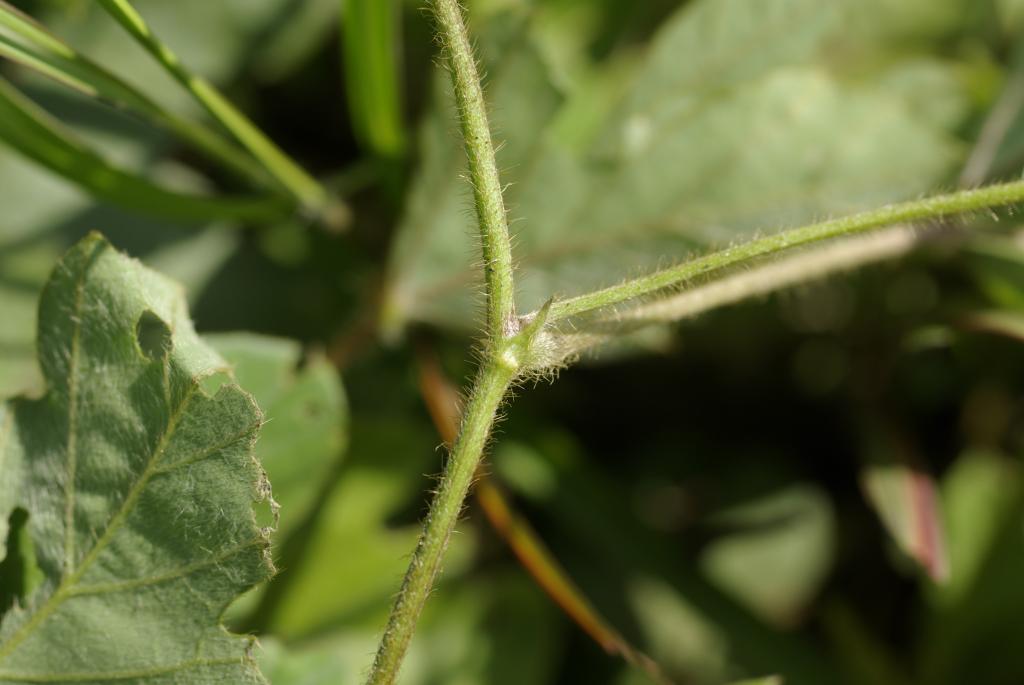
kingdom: Plantae
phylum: Tracheophyta
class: Magnoliopsida
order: Fabales
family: Fabaceae
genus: Neustanthus
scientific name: Neustanthus phaseoloides
